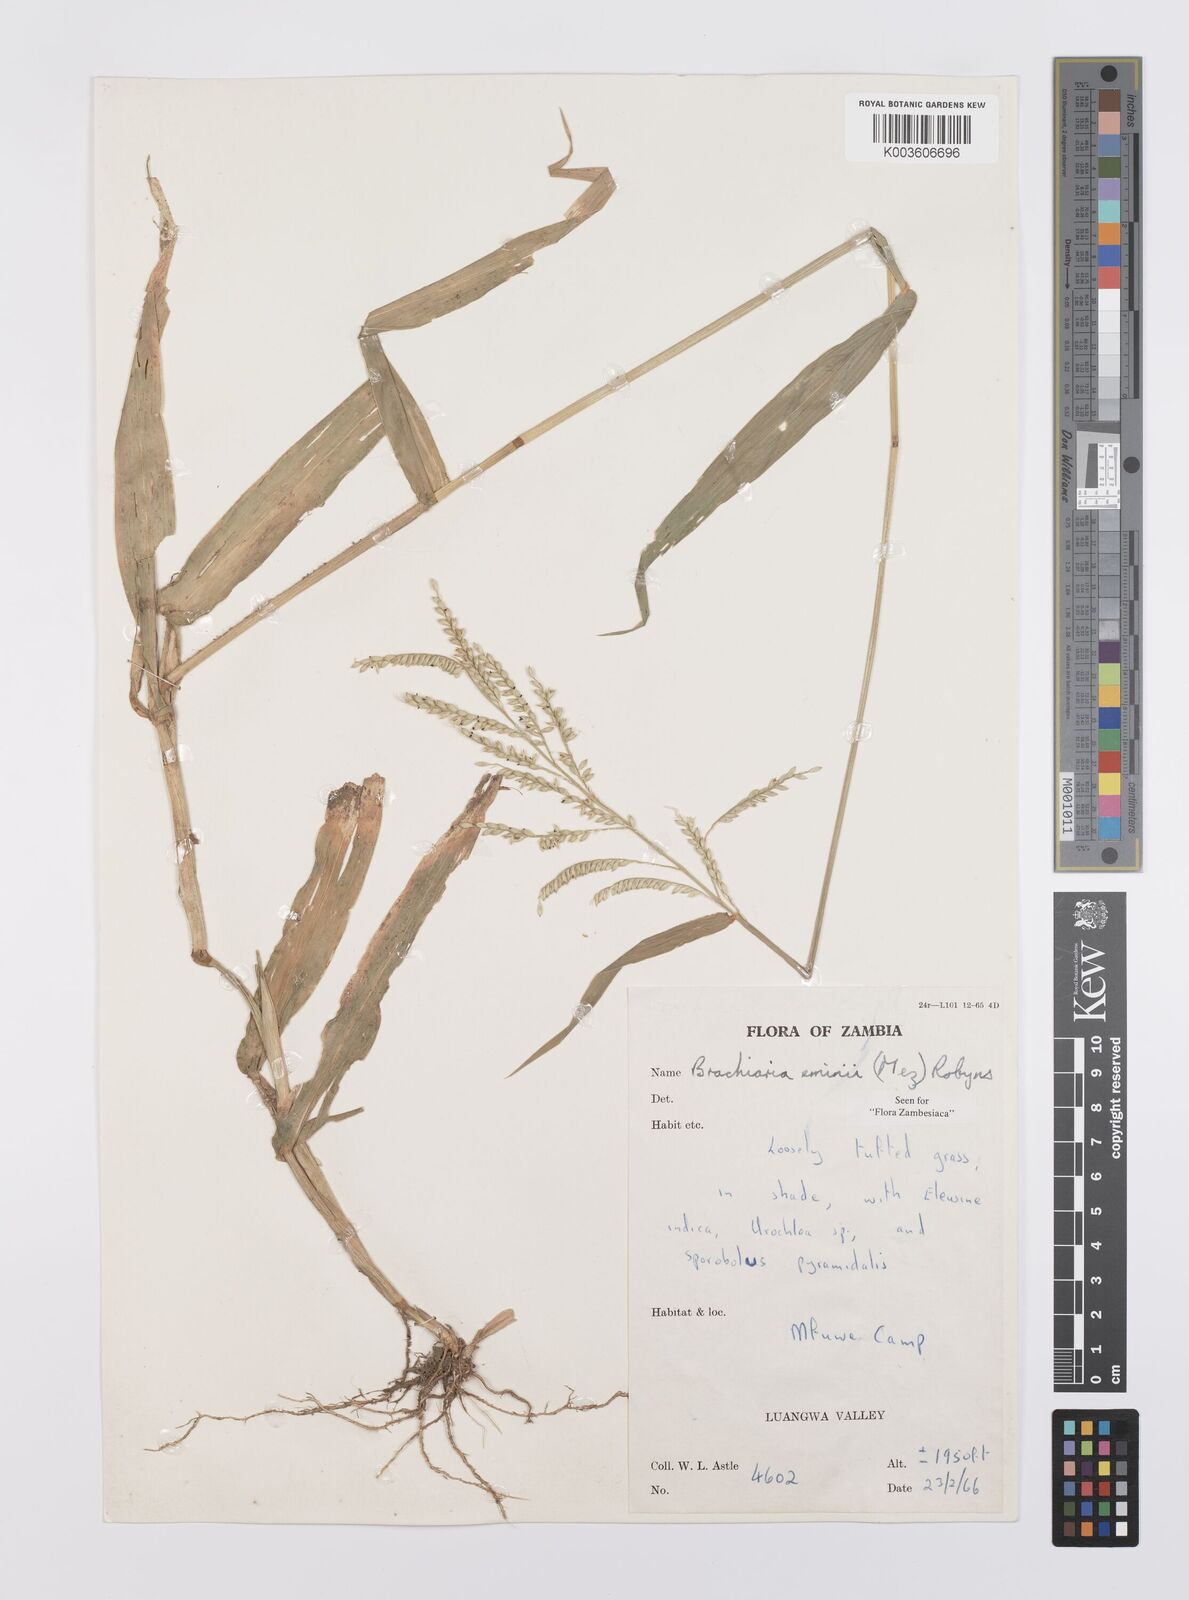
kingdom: Plantae
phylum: Tracheophyta
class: Liliopsida
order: Poales
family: Poaceae
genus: Urochloa
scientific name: Urochloa eminii
